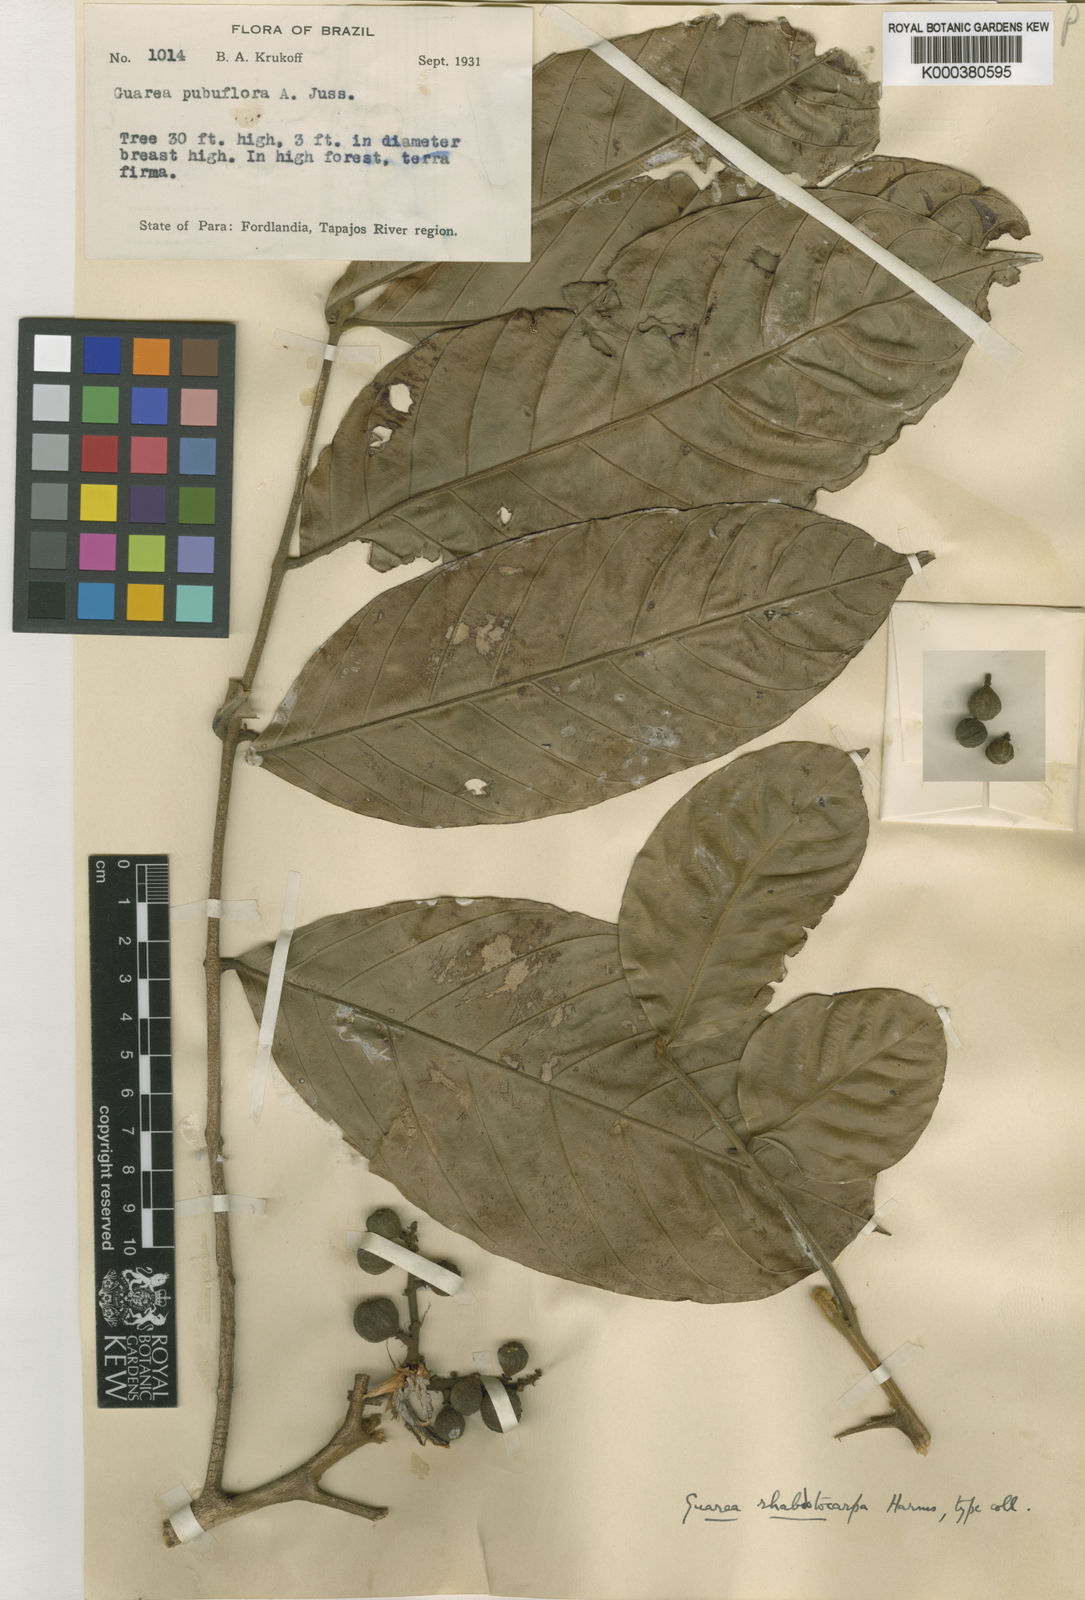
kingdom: Plantae
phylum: Tracheophyta
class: Magnoliopsida
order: Sapindales
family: Meliaceae
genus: Guarea
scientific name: Guarea pubescens
